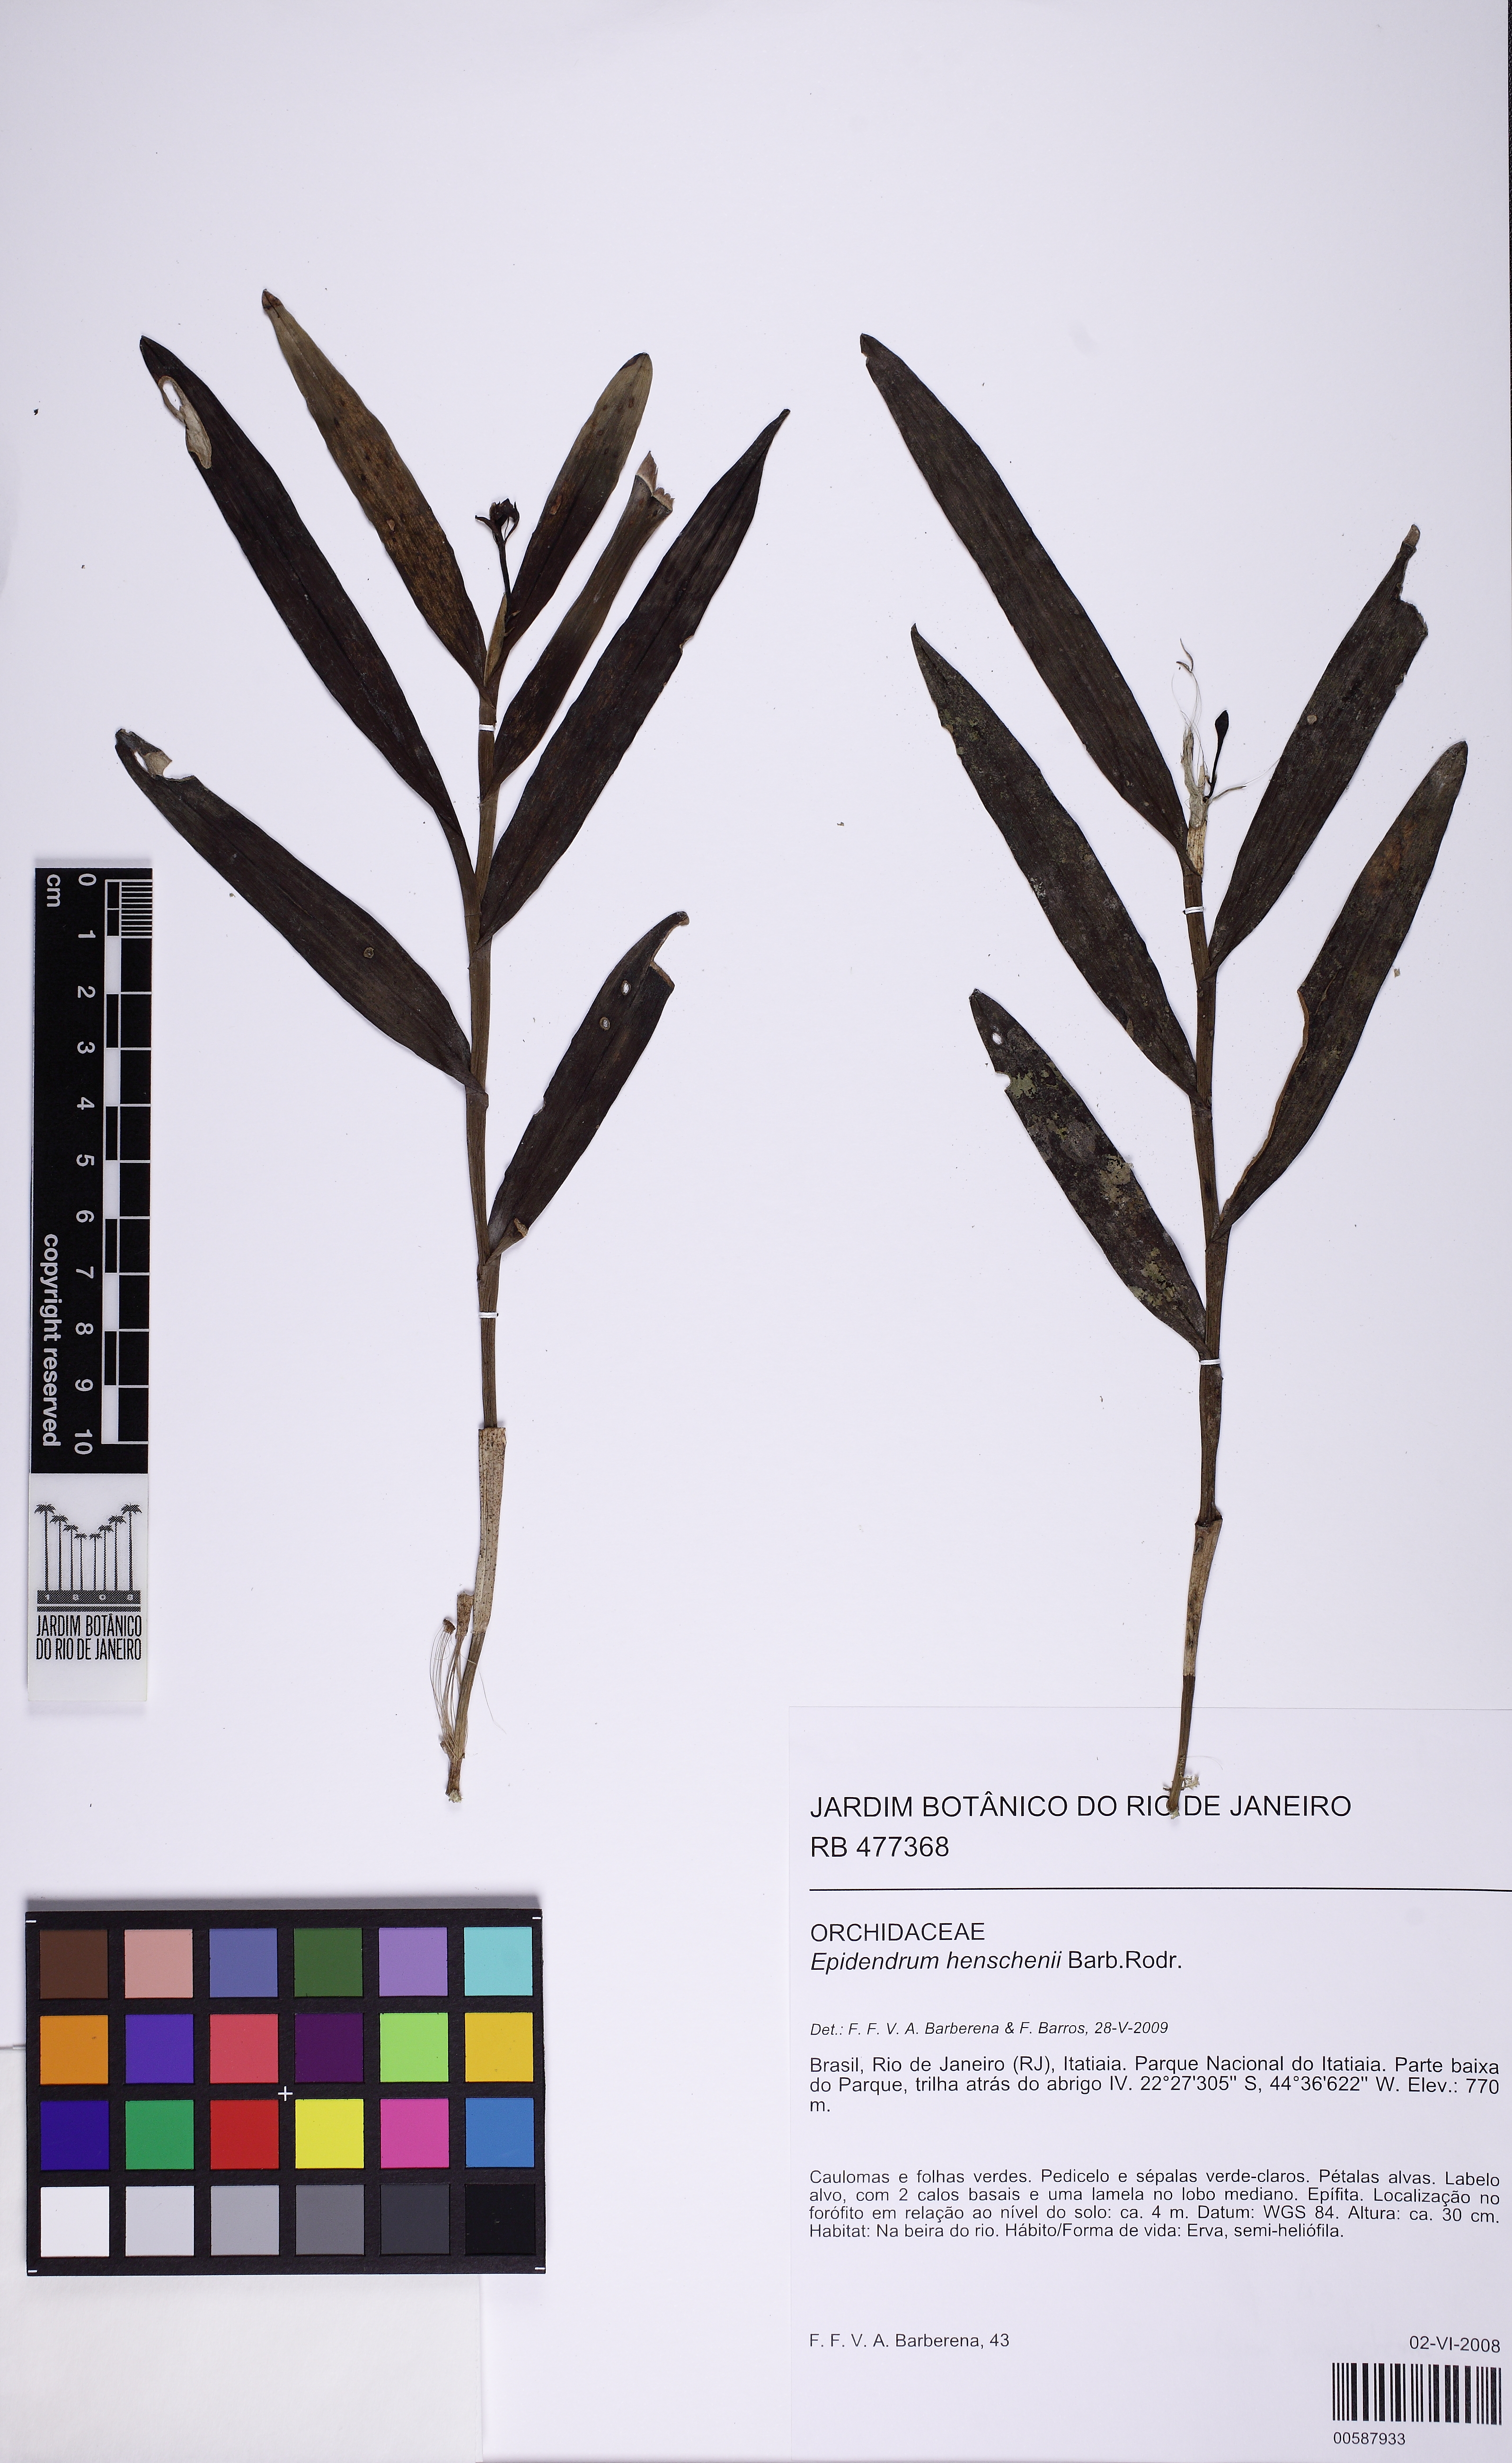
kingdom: Plantae
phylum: Tracheophyta
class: Liliopsida
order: Asparagales
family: Orchidaceae
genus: Epidendrum
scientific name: Epidendrum henschenii
